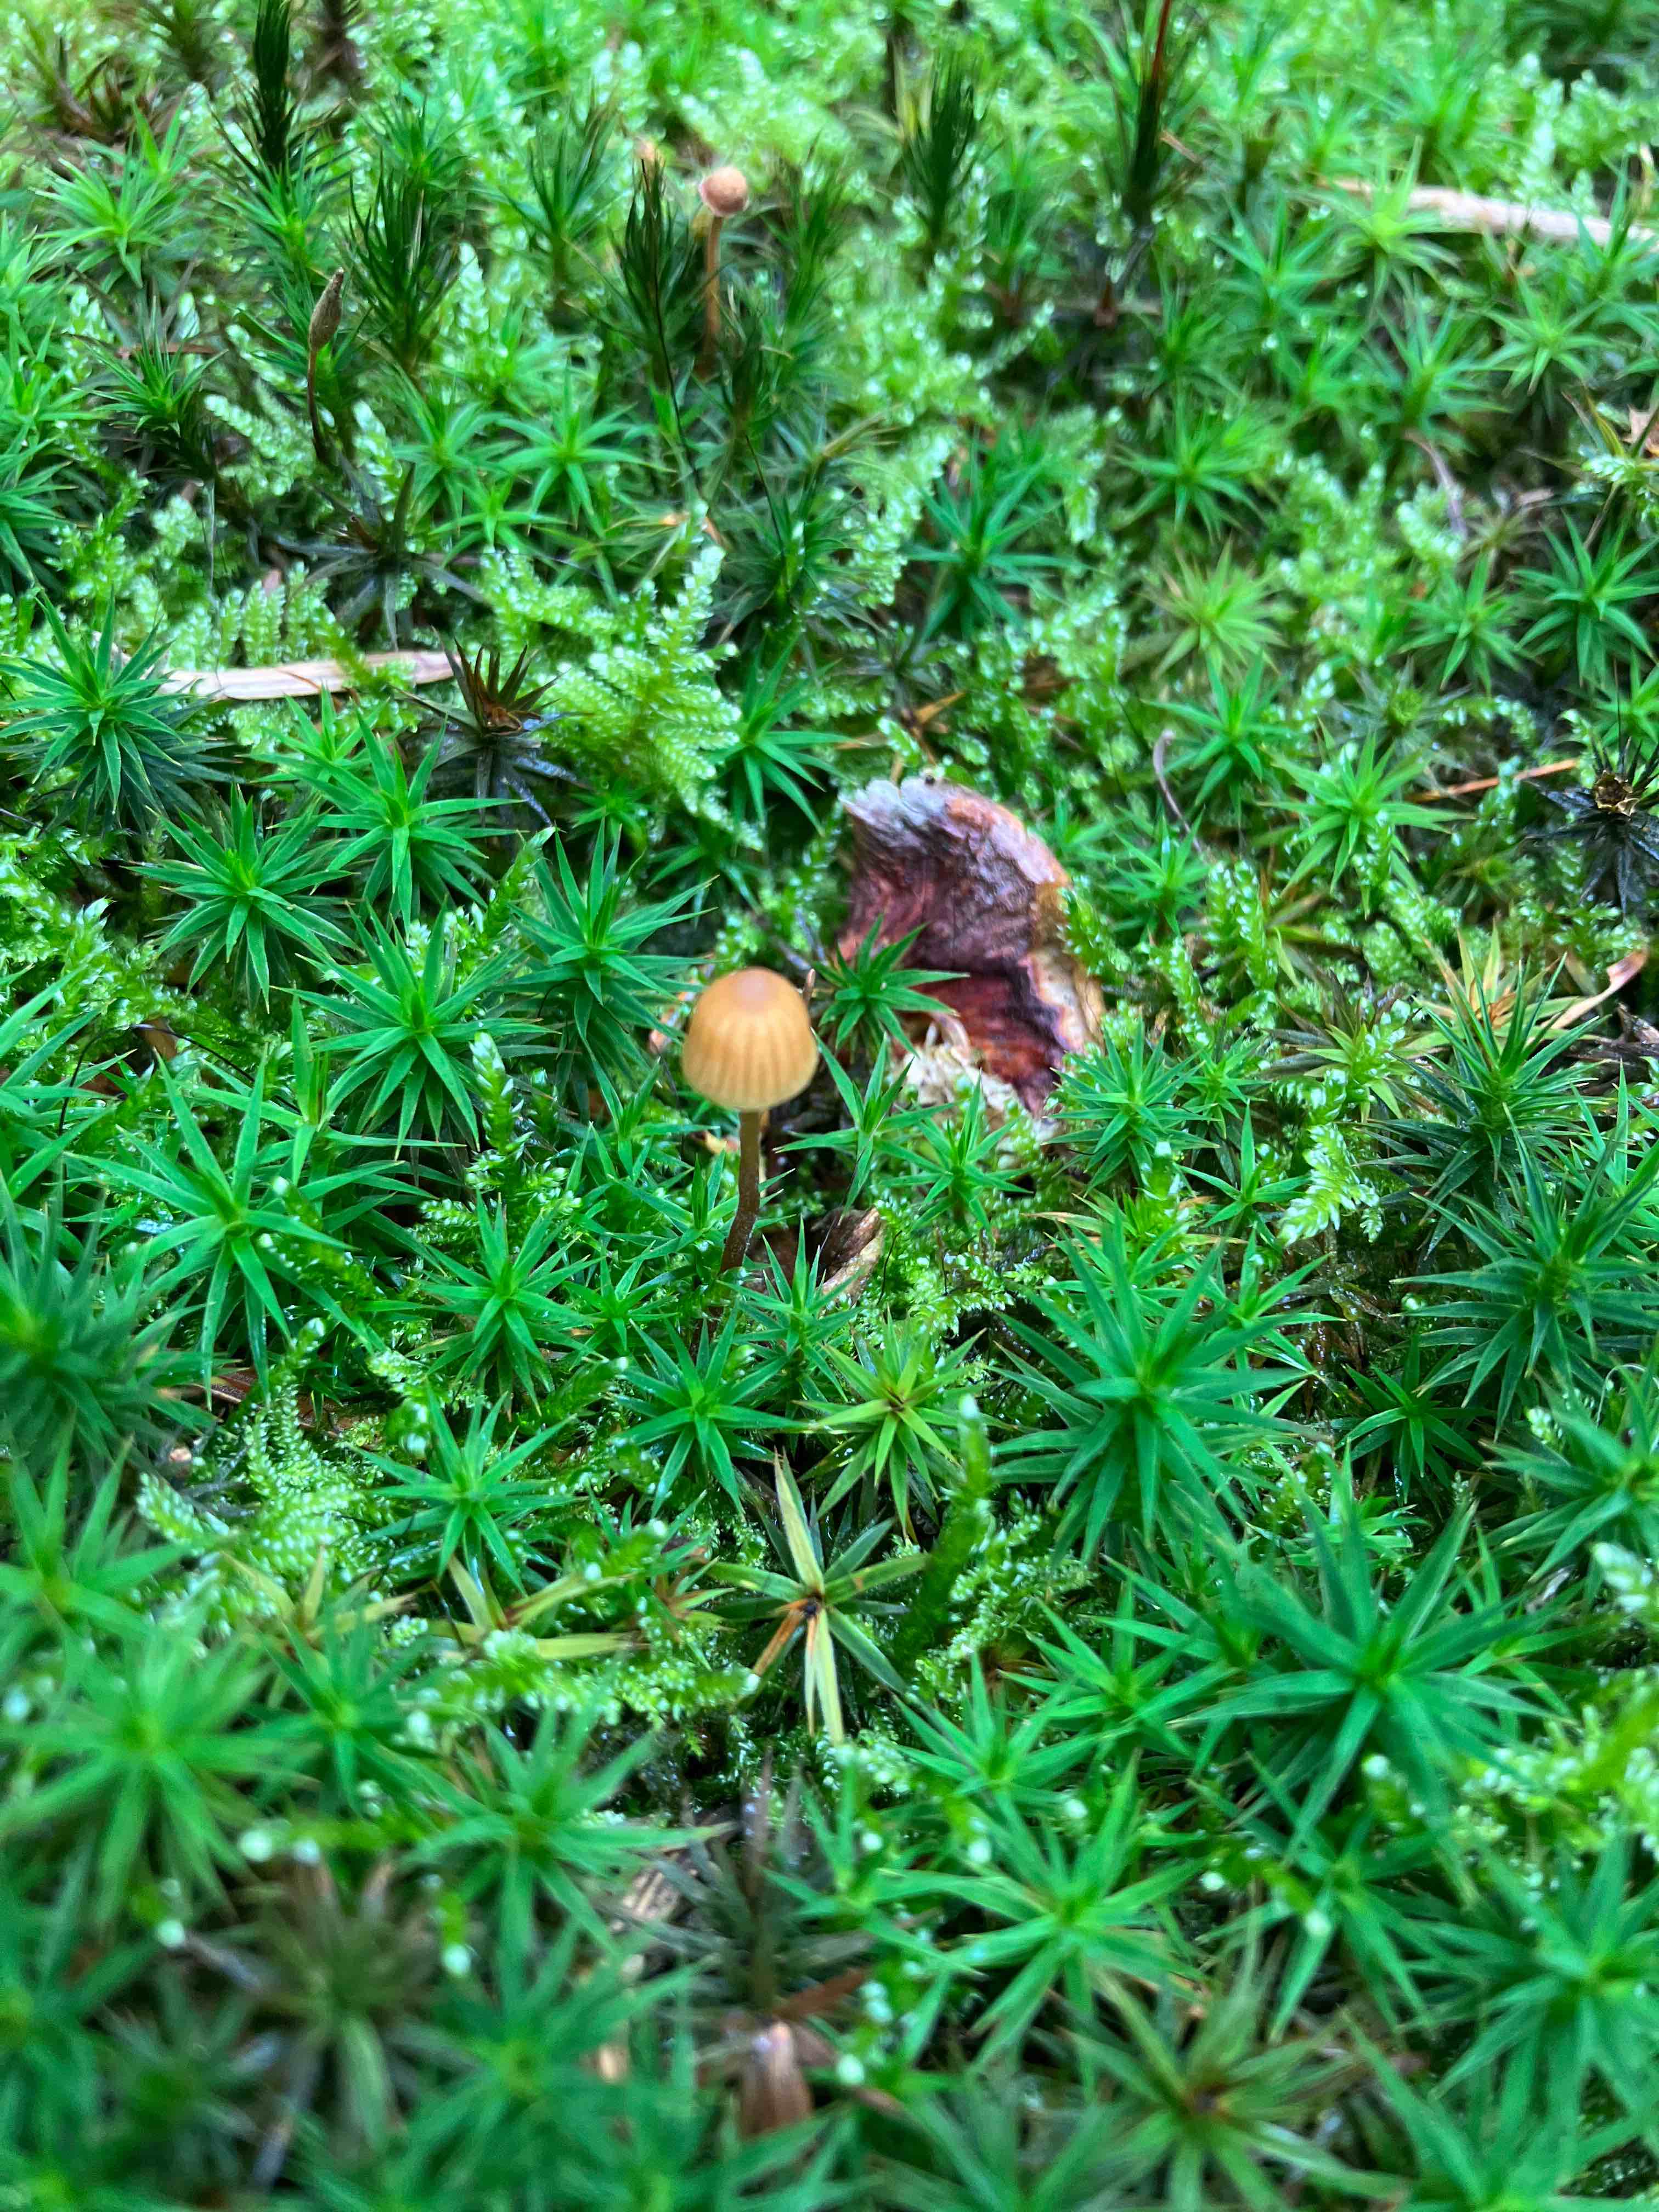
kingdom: Fungi
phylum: Basidiomycota
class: Agaricomycetes
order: Agaricales
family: Hymenogastraceae
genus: Galerina
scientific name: Galerina
